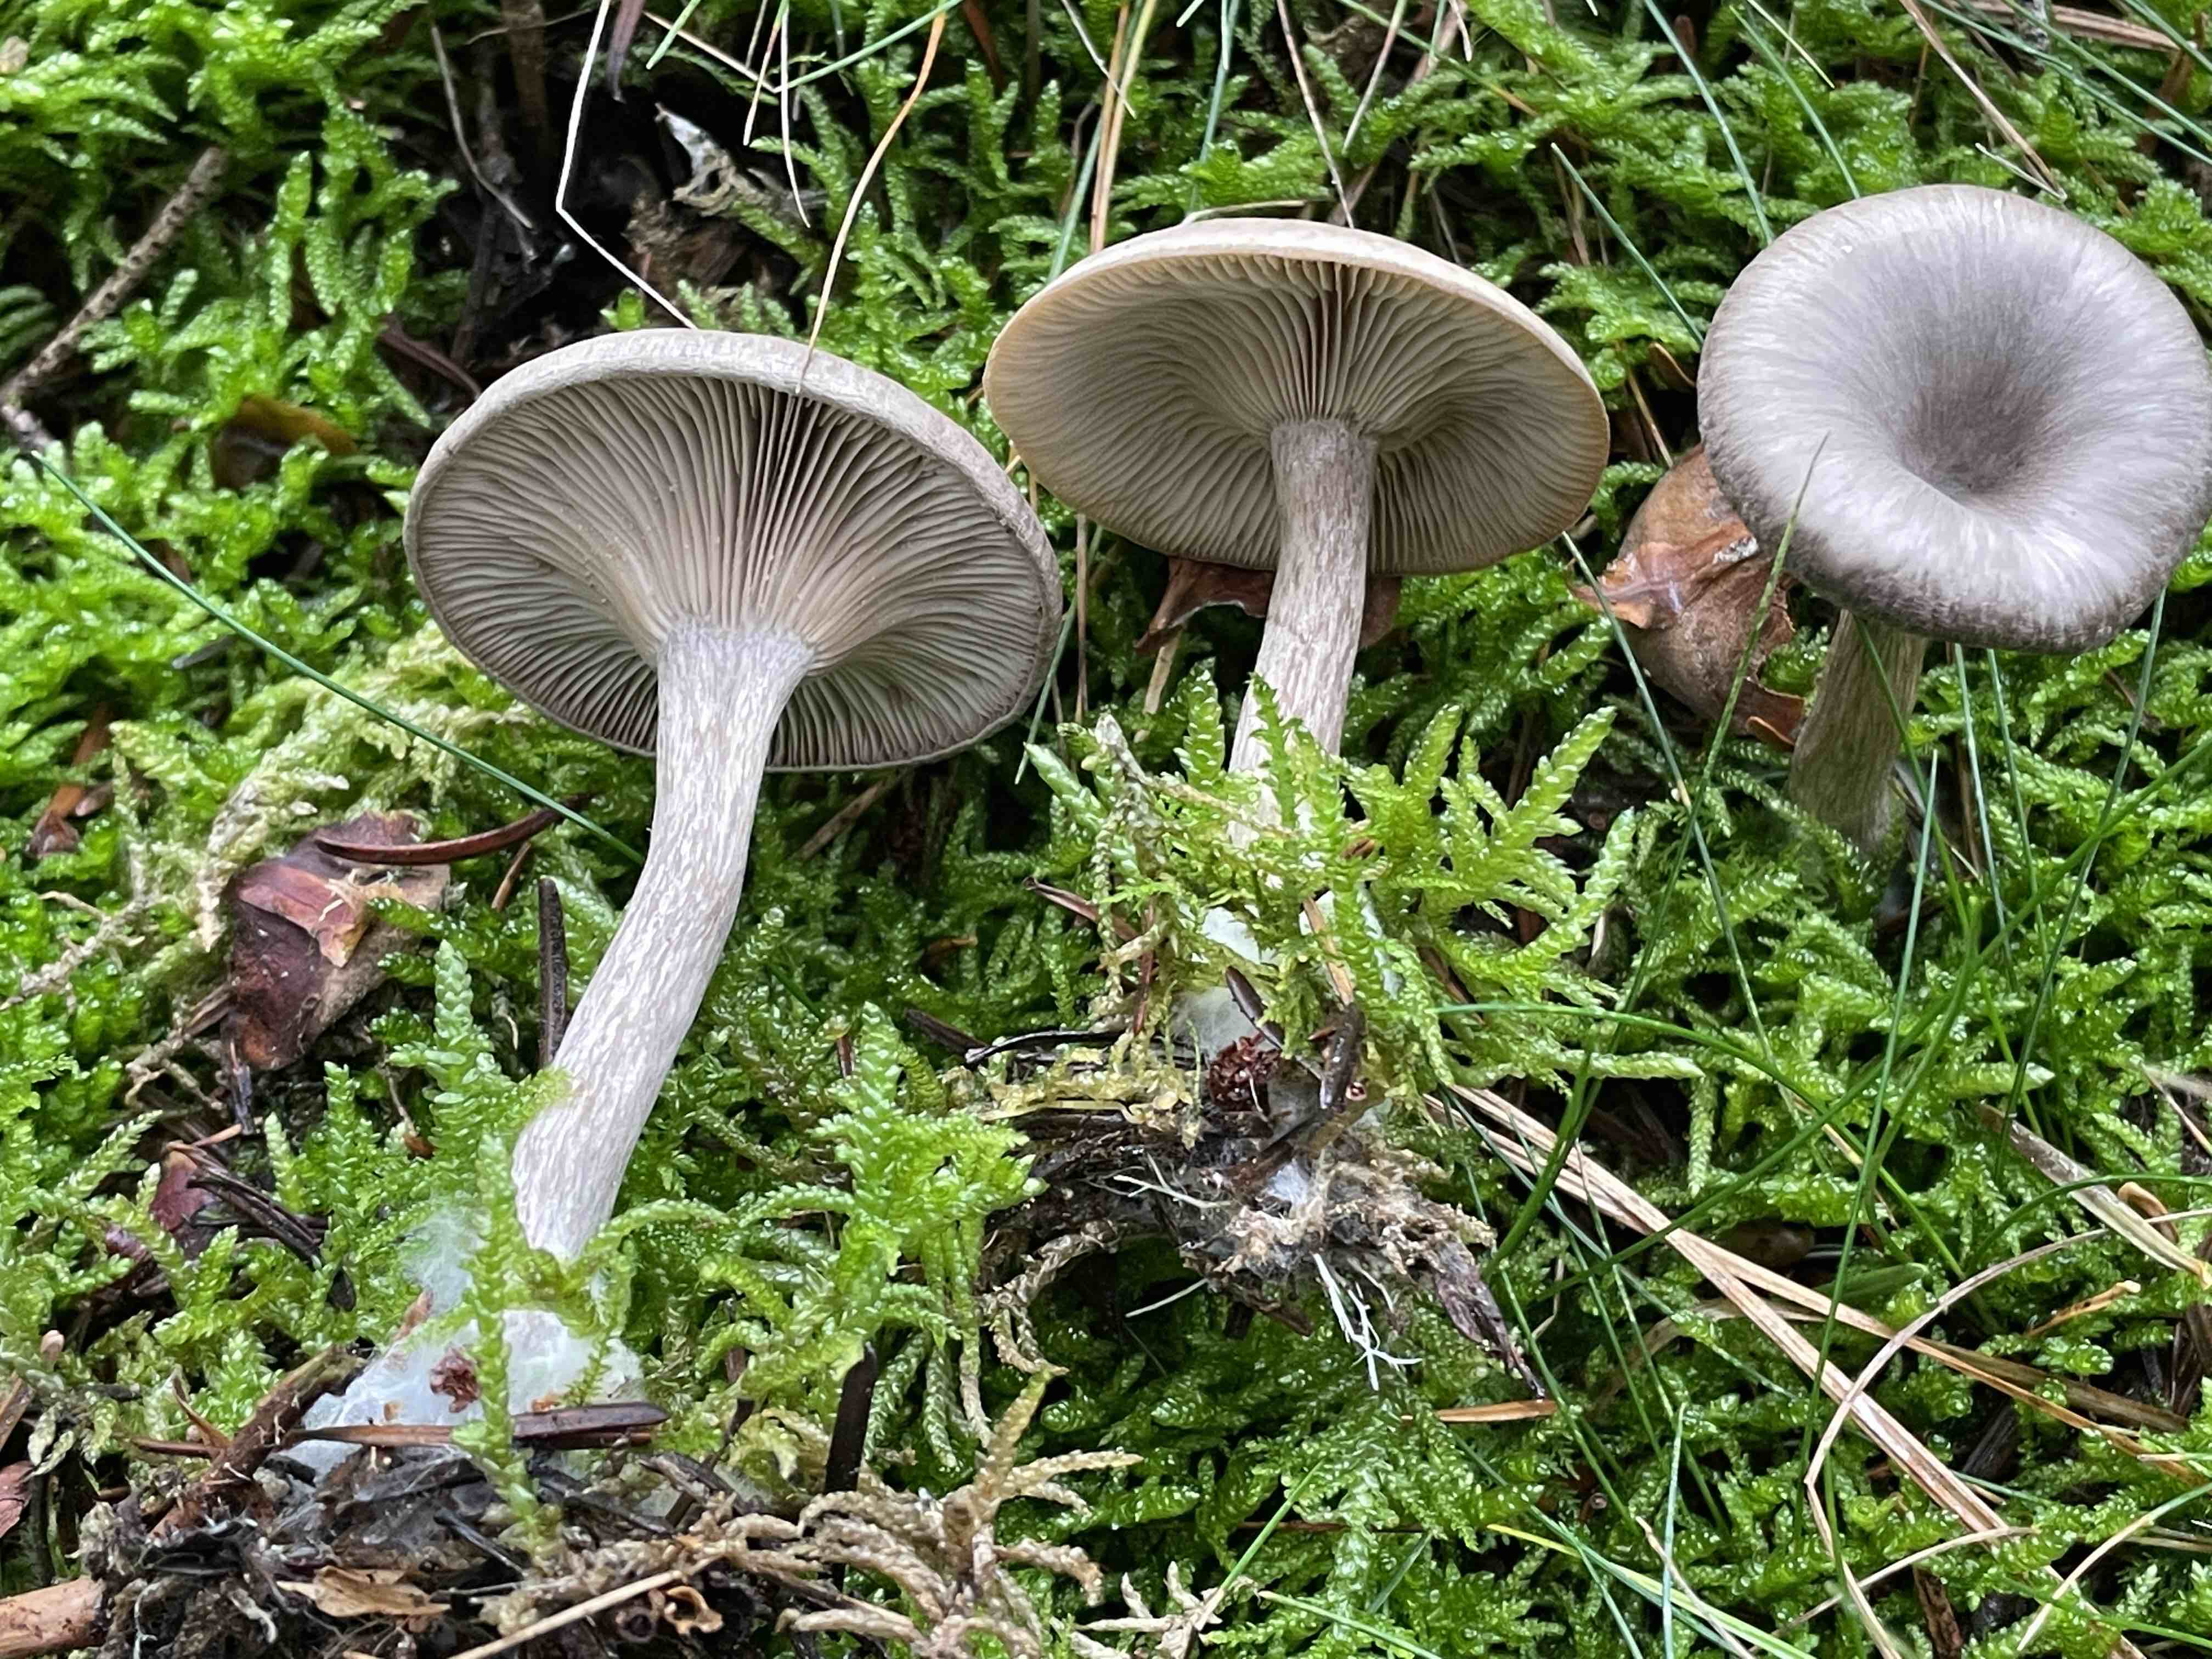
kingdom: Fungi
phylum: Basidiomycota
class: Agaricomycetes
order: Agaricales
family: Pseudoclitocybaceae
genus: Pseudoclitocybe
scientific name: Pseudoclitocybe cyathiformis
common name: almindelig bægertragthat
